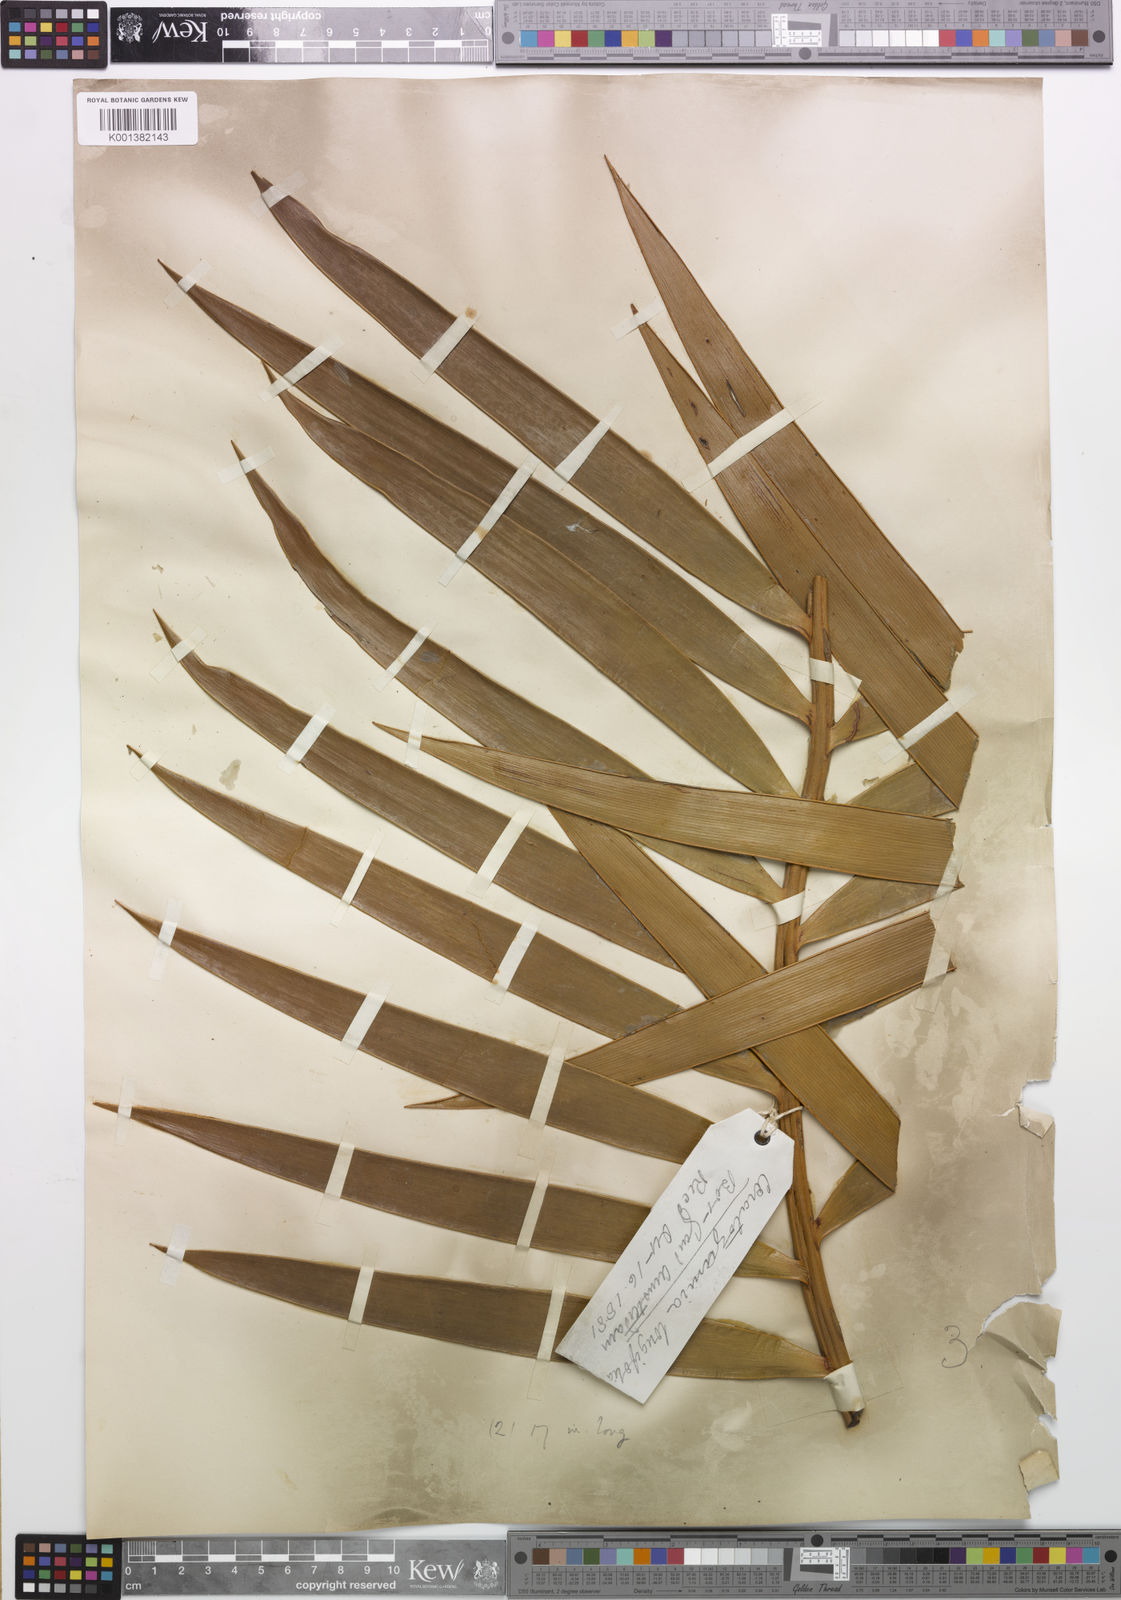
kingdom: Plantae
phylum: Tracheophyta
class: Cycadopsida
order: Cycadales
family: Zamiaceae
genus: Ceratozamia
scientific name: Ceratozamia mexicana
